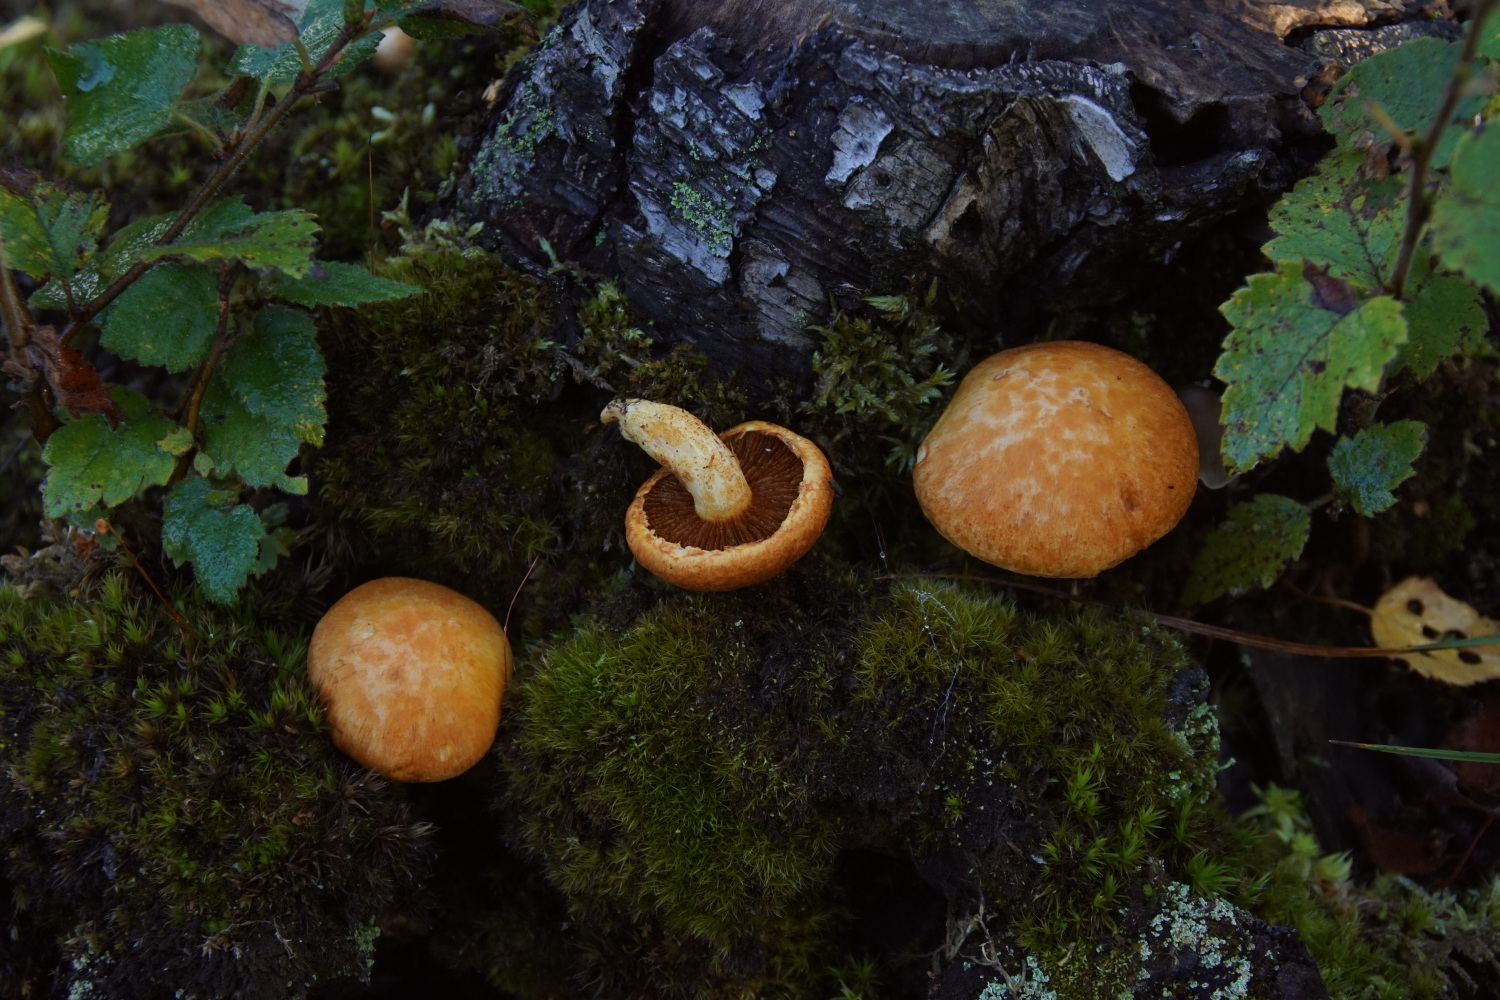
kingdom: Fungi
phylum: Basidiomycota
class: Agaricomycetes
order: Agaricales
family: Hymenogastraceae
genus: Gymnopilus
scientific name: Gymnopilus
